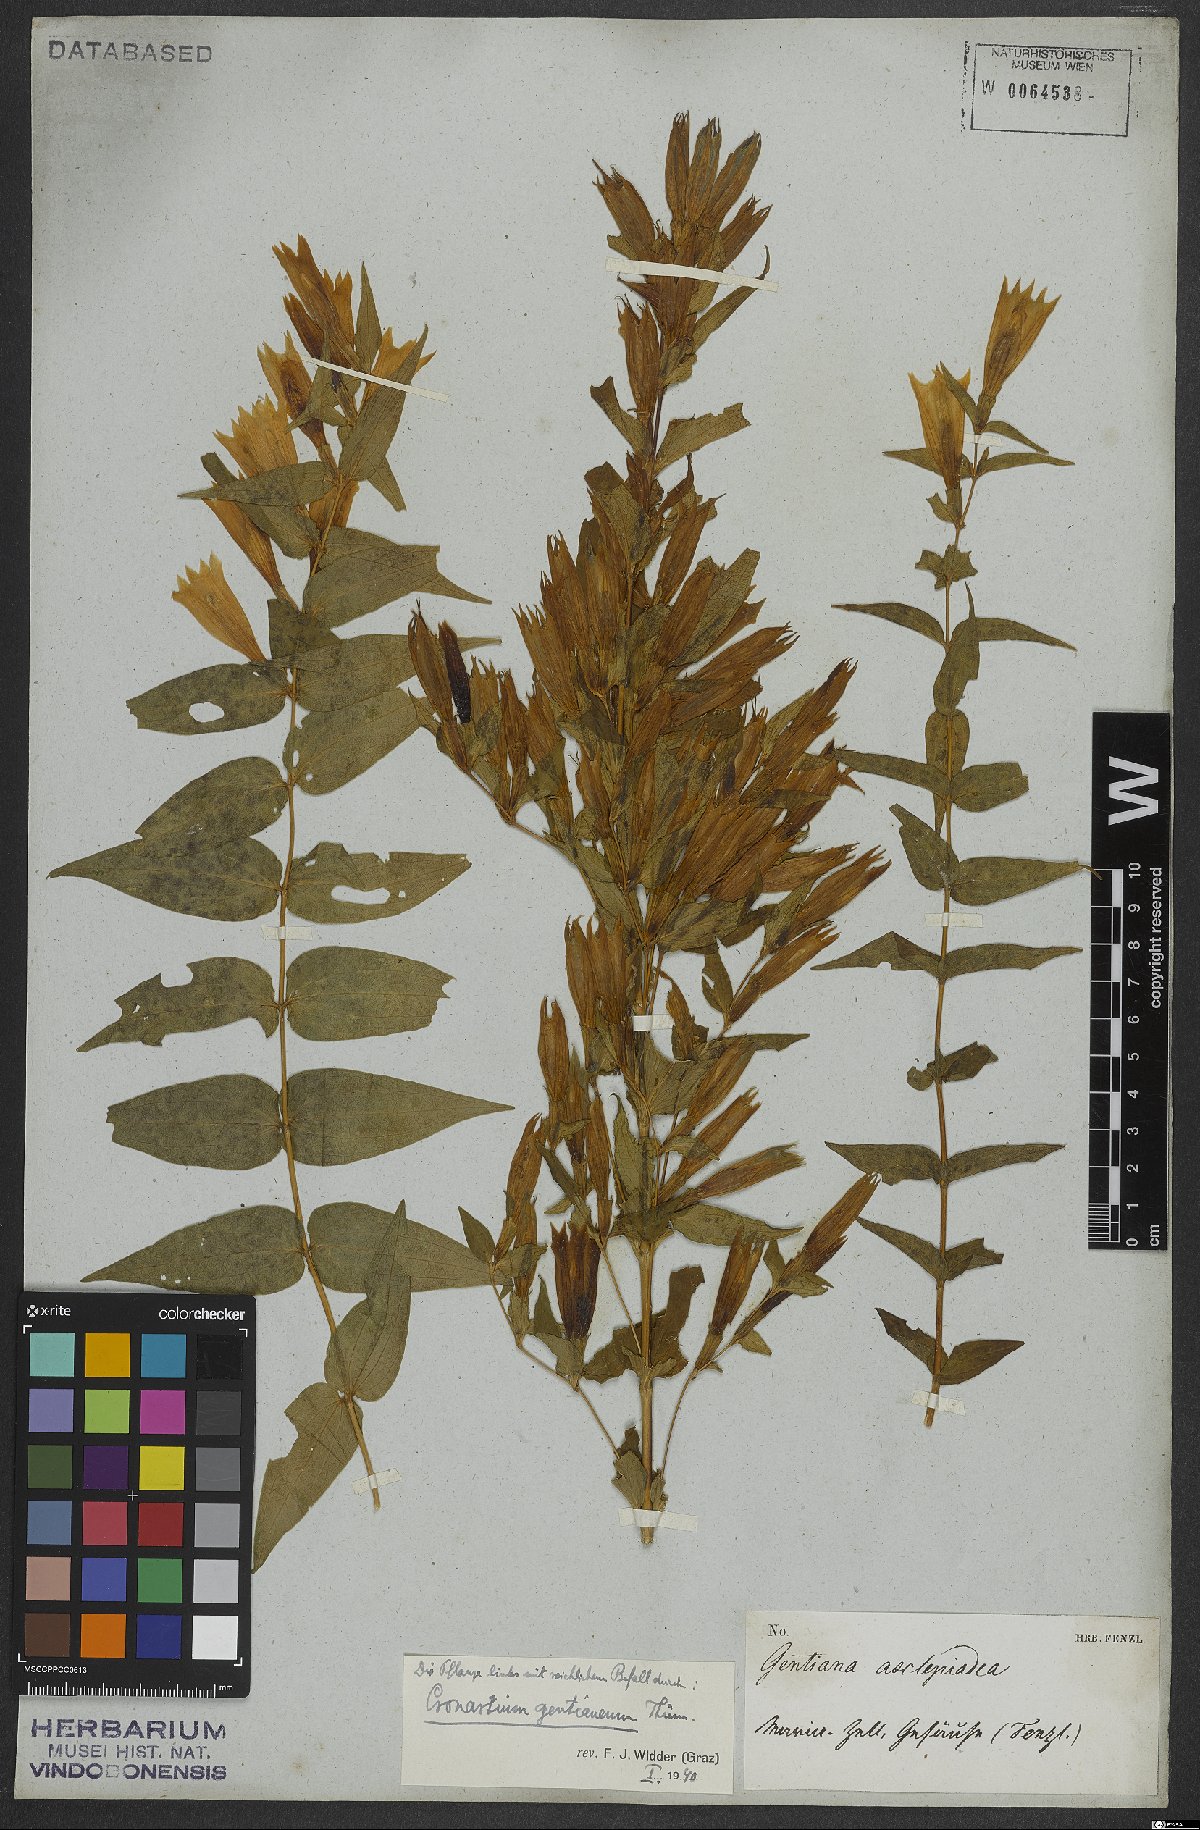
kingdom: Plantae
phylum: Tracheophyta
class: Magnoliopsida
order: Gentianales
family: Gentianaceae
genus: Gentiana
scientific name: Gentiana asclepiadea
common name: Willow gentian
